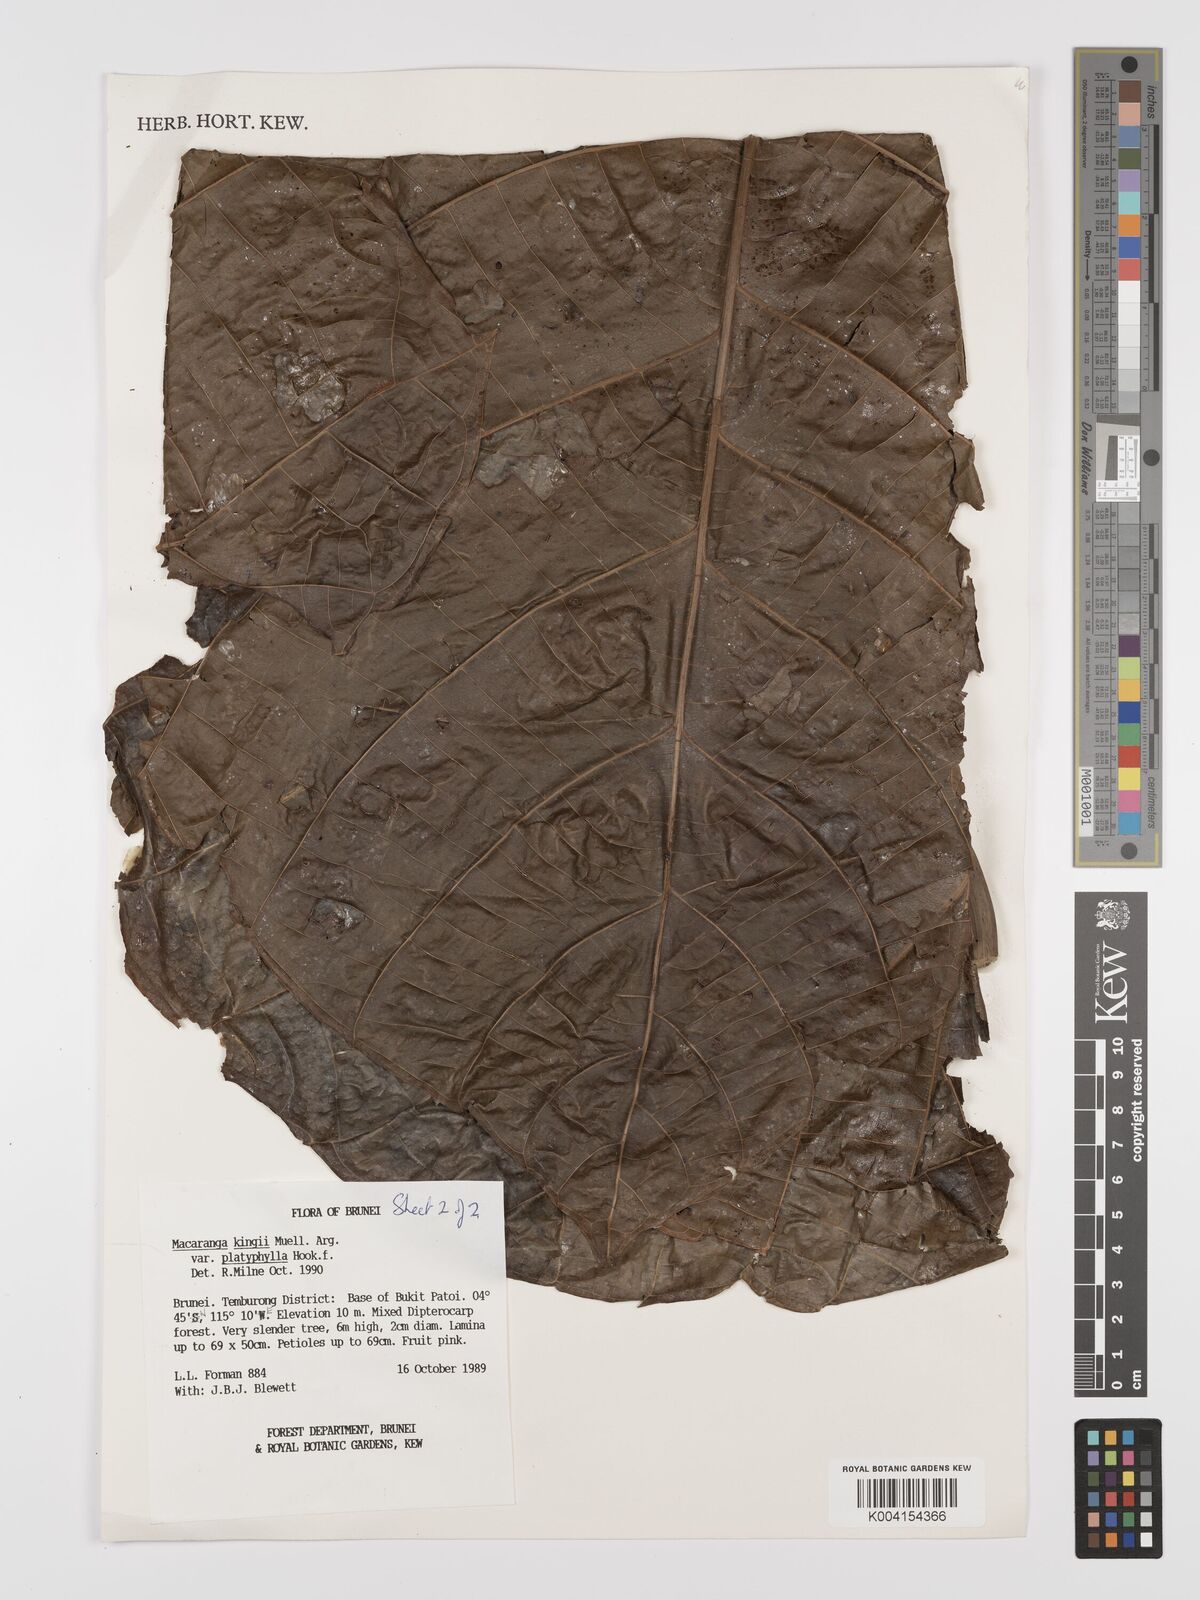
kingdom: Plantae
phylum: Tracheophyta
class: Magnoliopsida
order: Malpighiales
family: Euphorbiaceae
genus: Macaranga
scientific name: Macaranga umbrosa
